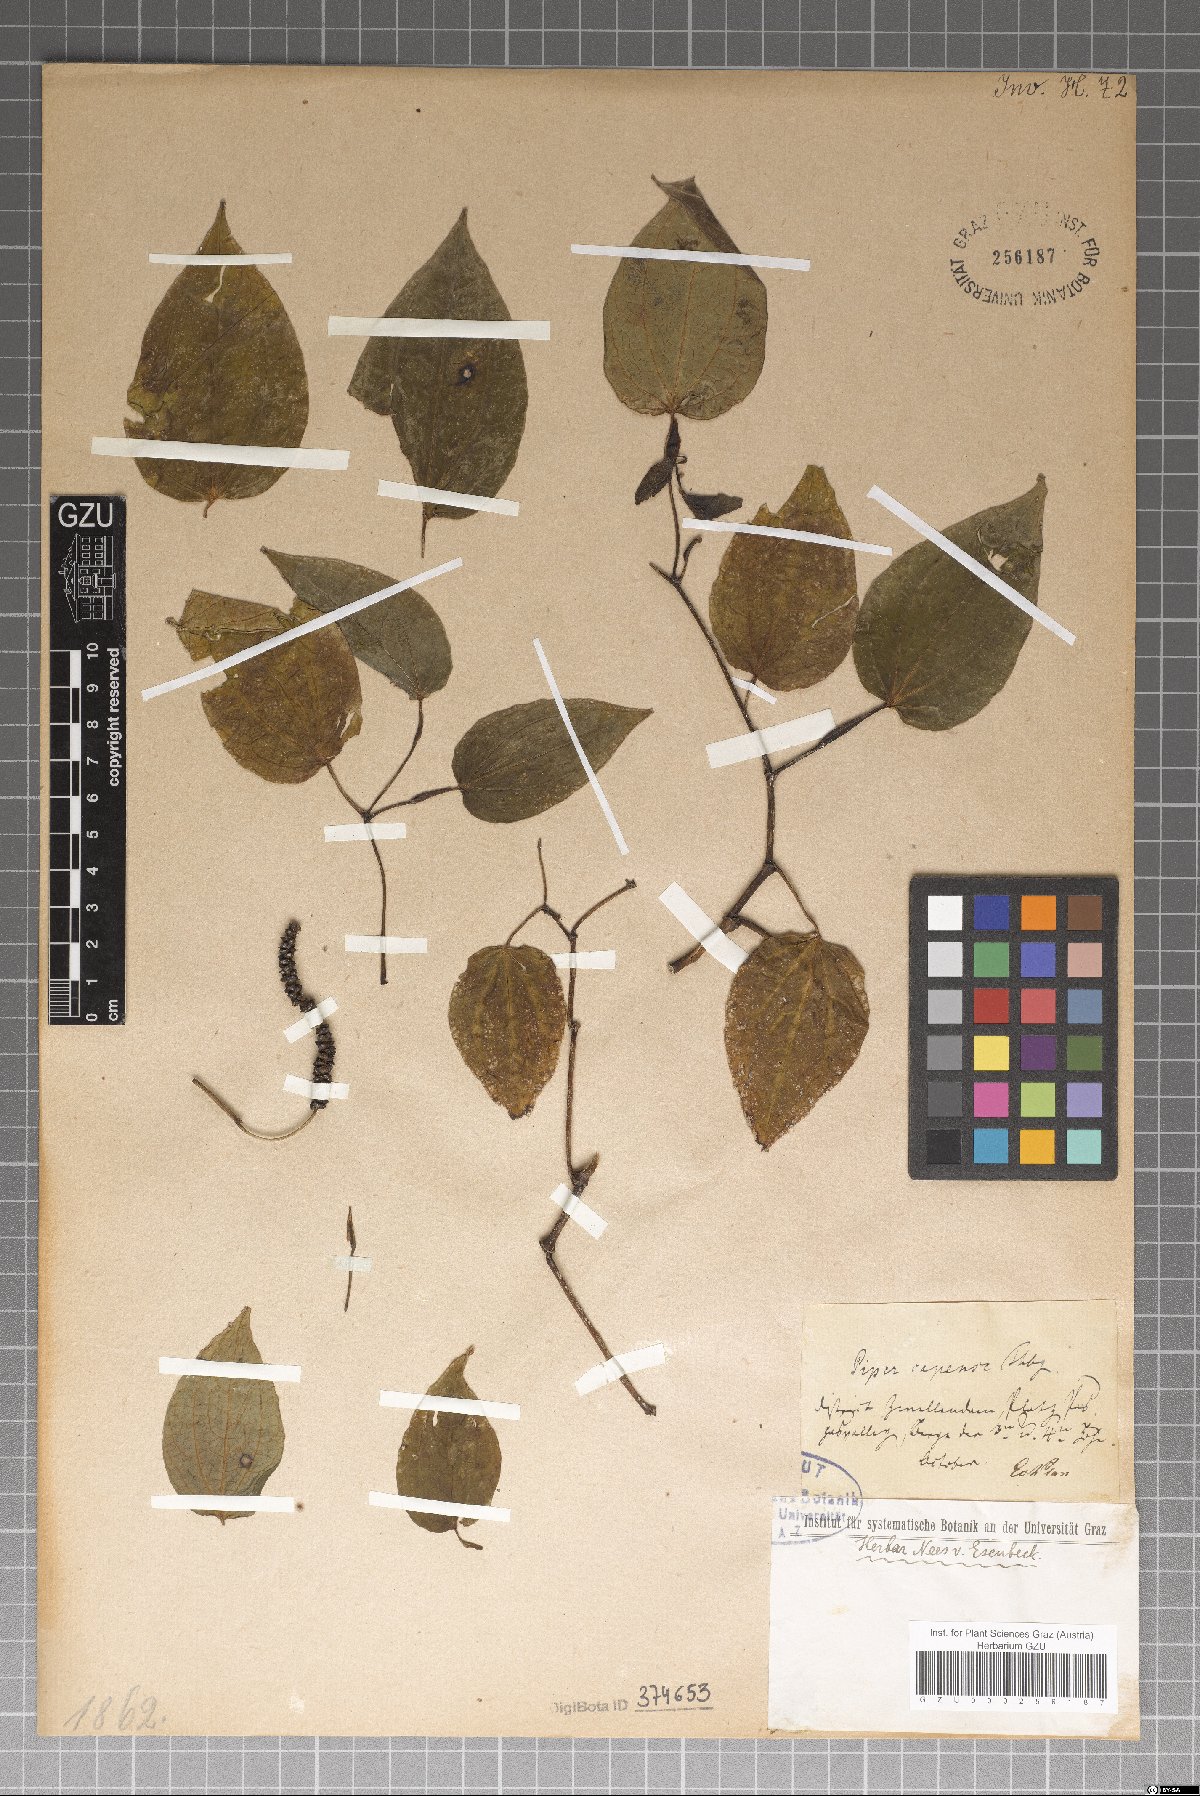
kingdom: Plantae
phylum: Tracheophyta
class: Magnoliopsida
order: Piperales
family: Piperaceae
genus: Piper
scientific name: Piper capense
